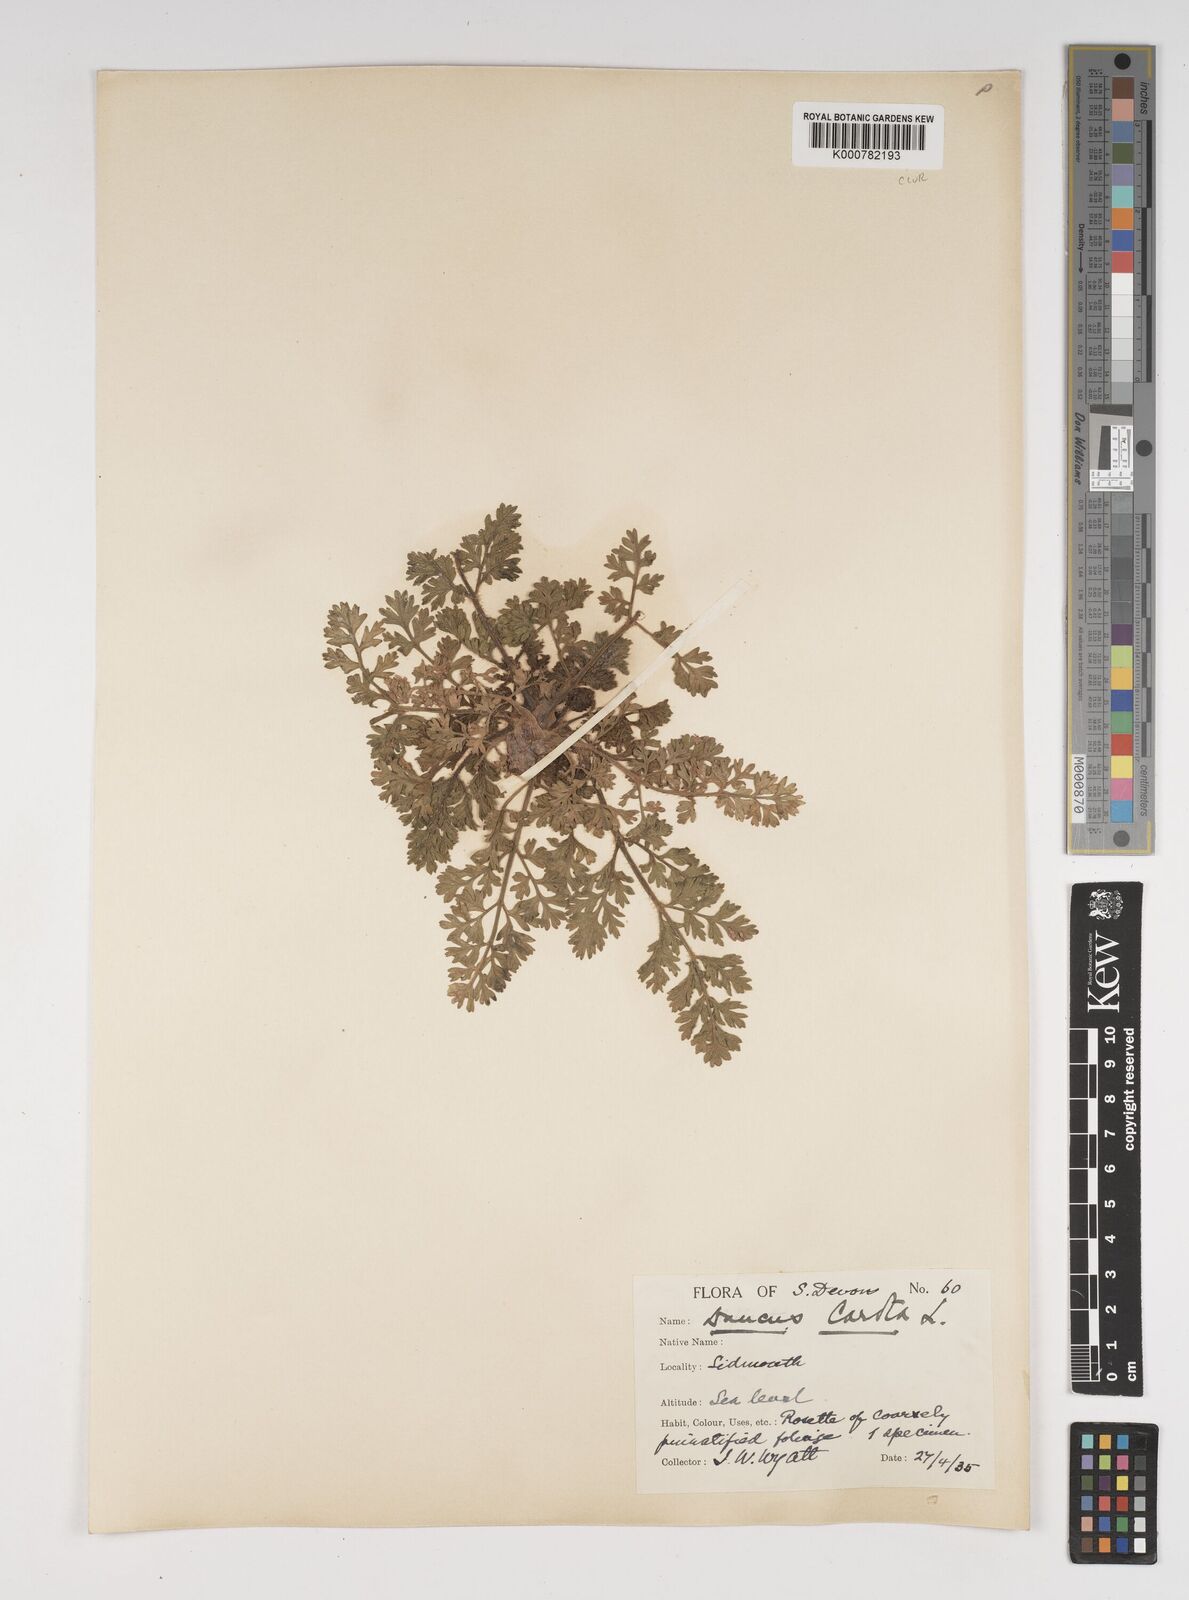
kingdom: Plantae
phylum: Tracheophyta
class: Magnoliopsida
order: Apiales
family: Apiaceae
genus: Daucus
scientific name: Daucus carota
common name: Wild carrot
